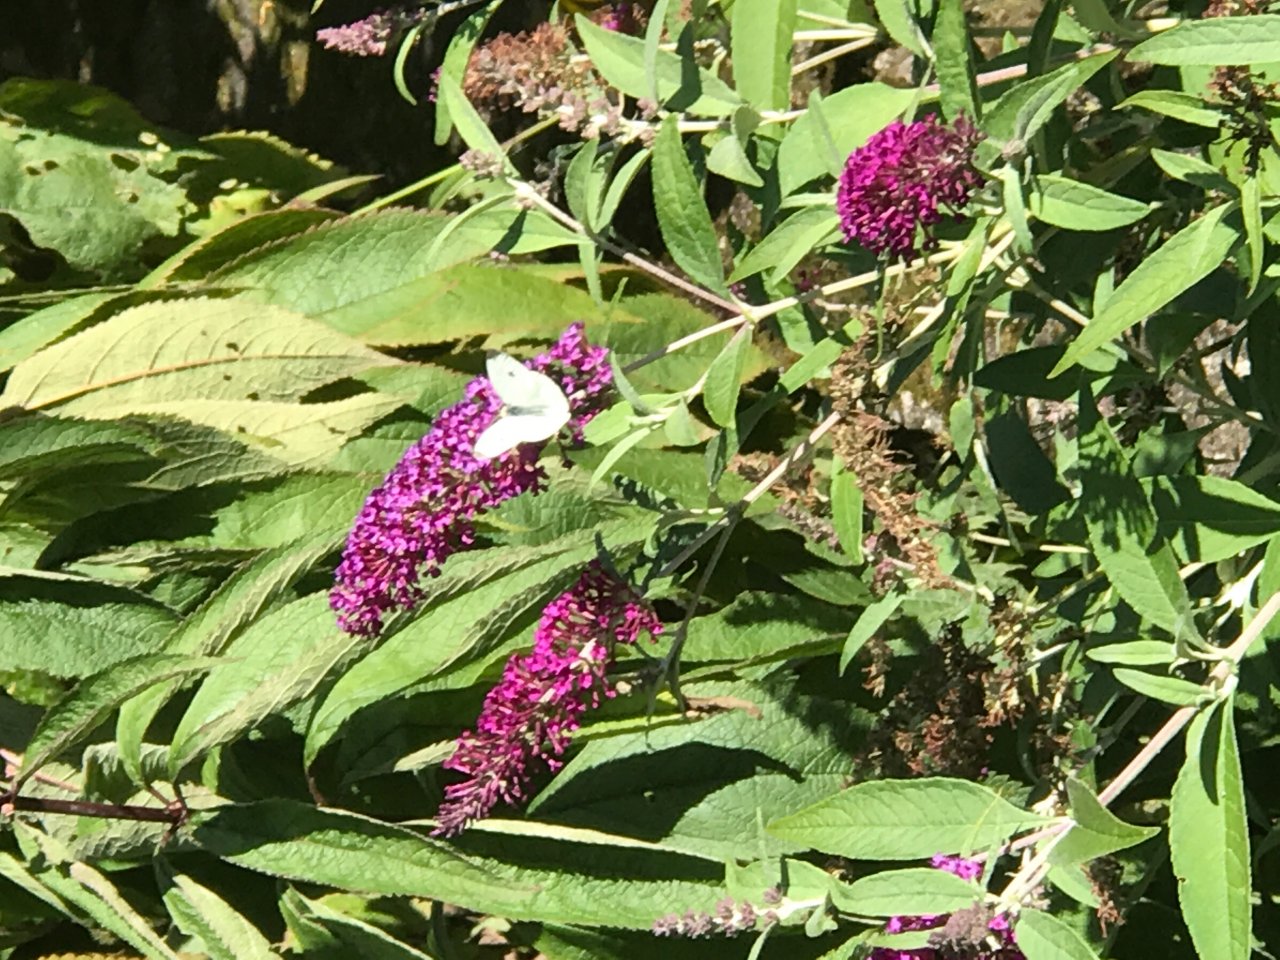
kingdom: Animalia
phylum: Arthropoda
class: Insecta
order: Lepidoptera
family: Pieridae
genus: Pieris
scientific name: Pieris rapae
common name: Cabbage White
